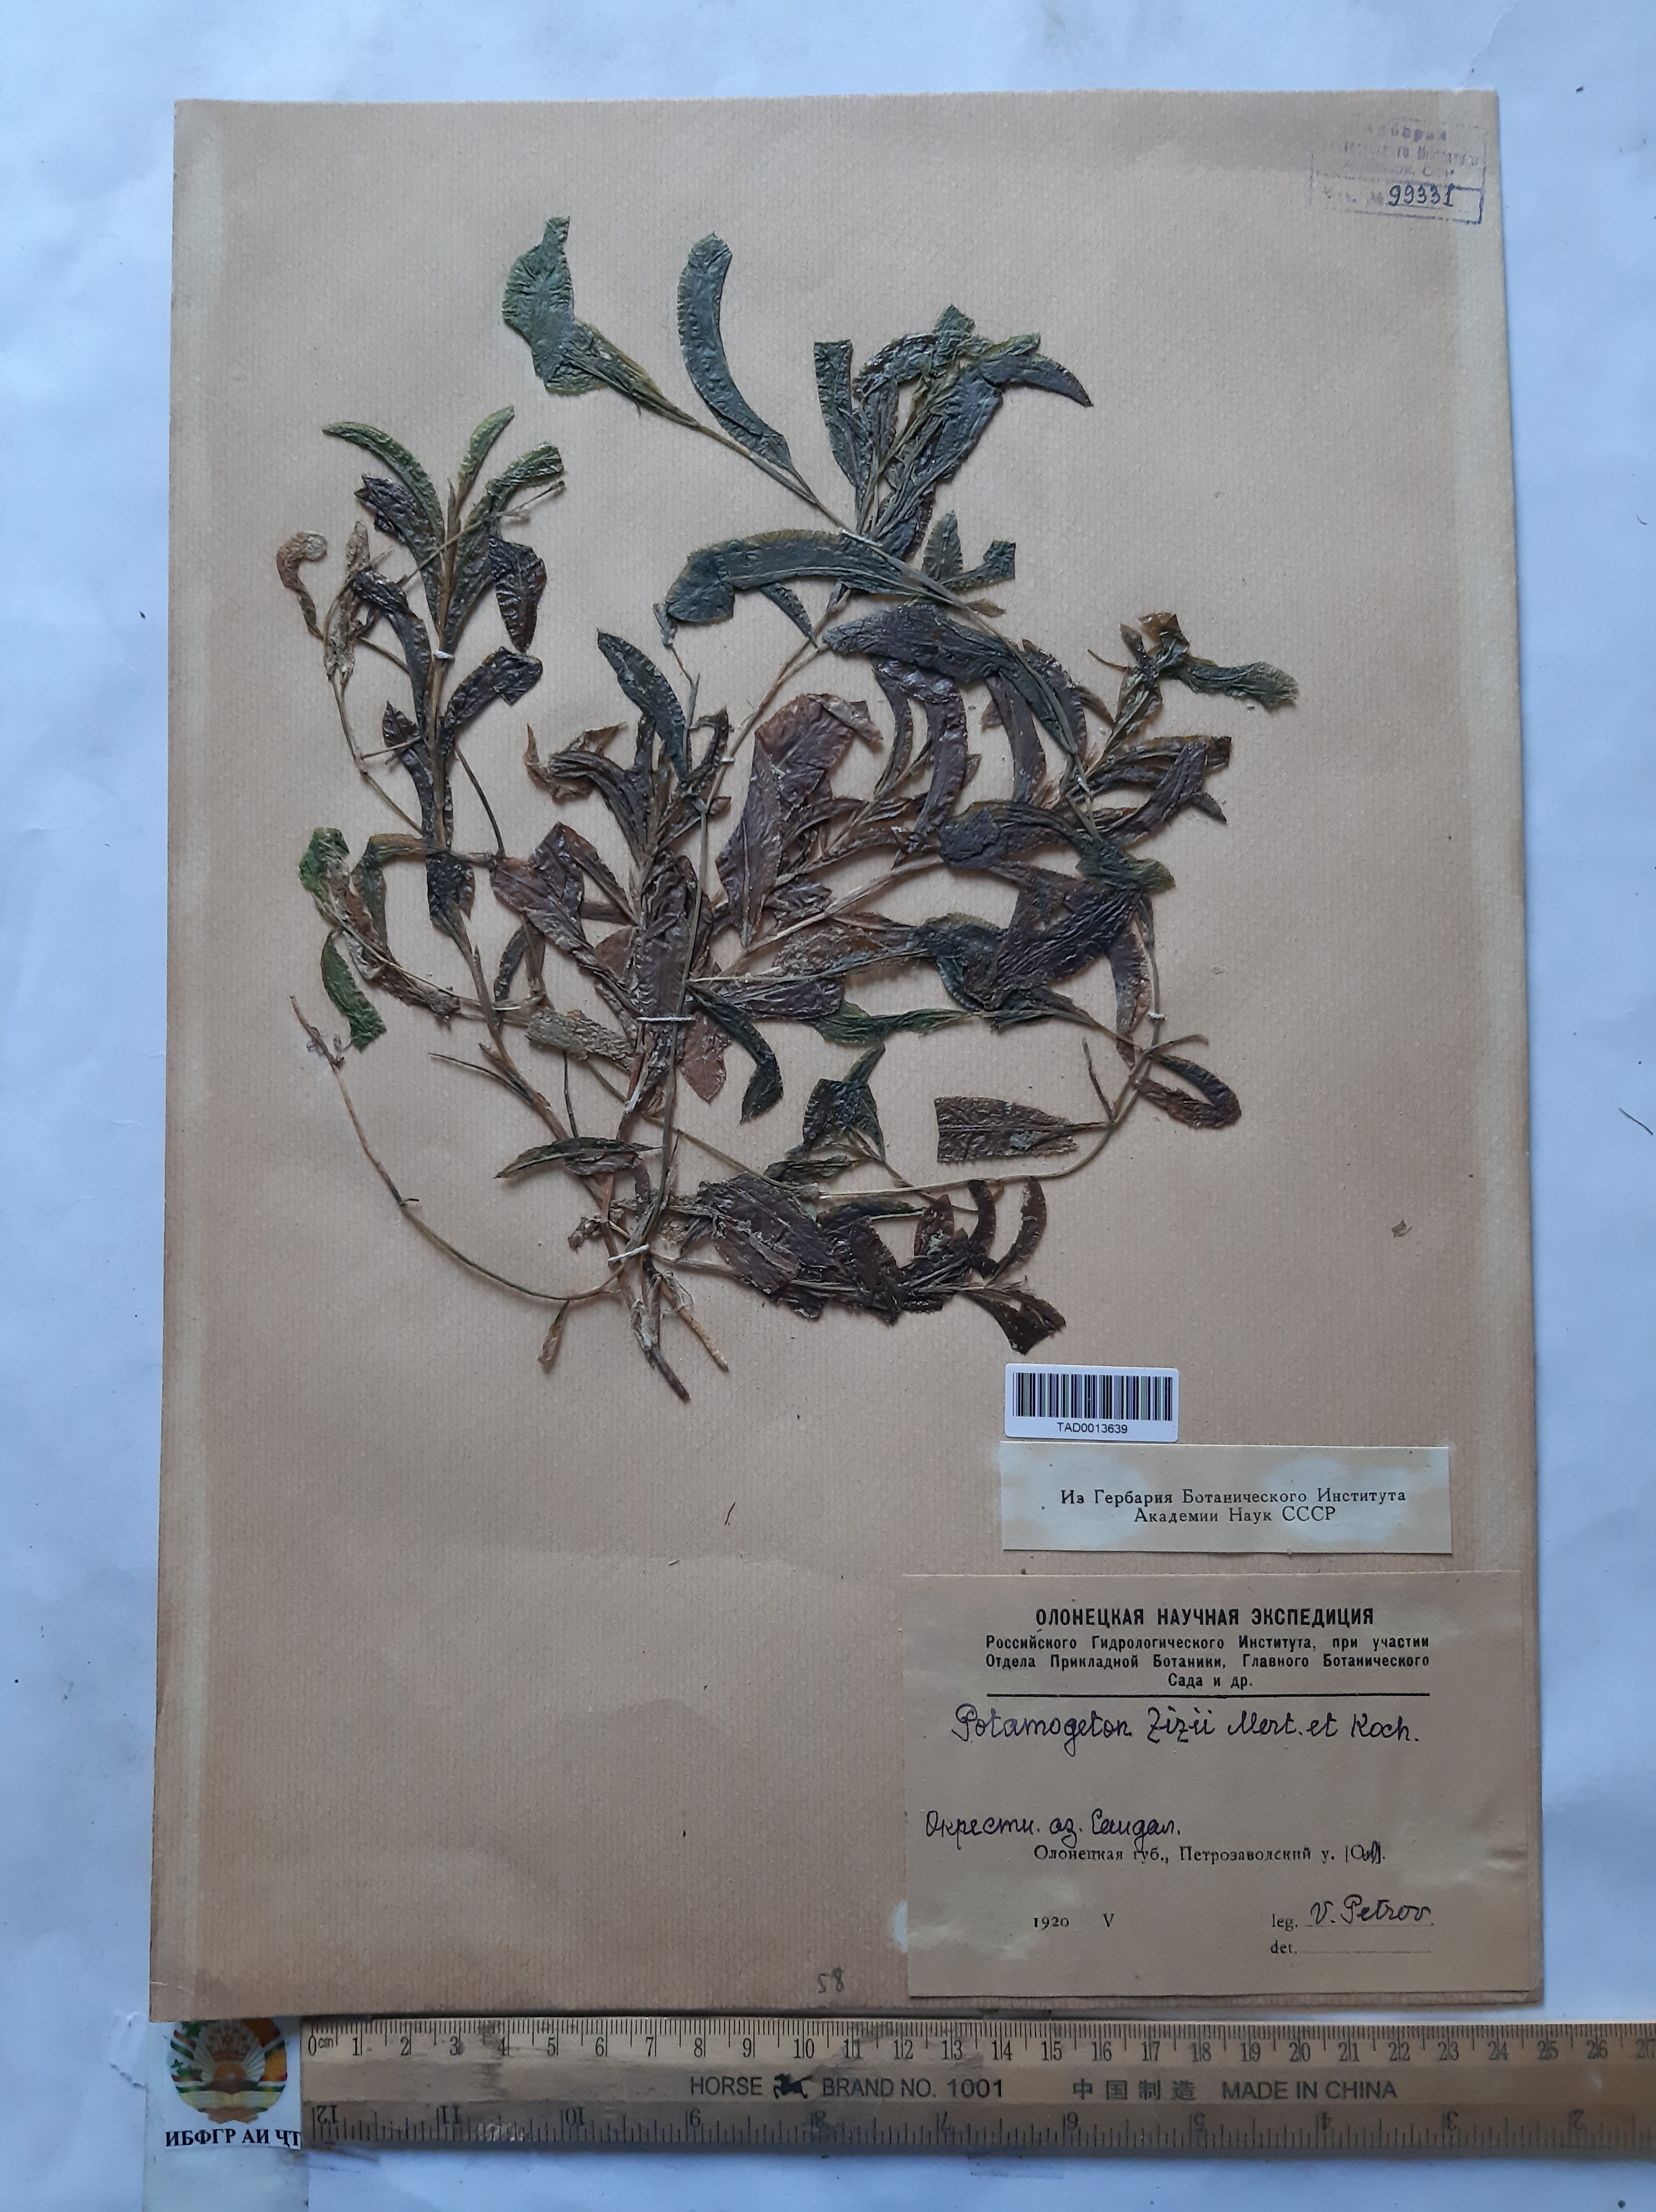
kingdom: Plantae
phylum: Tracheophyta
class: Liliopsida
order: Alismatales
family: Potamogetonaceae
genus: Potamogeton
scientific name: Potamogeton lucens
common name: Shining pondweed
